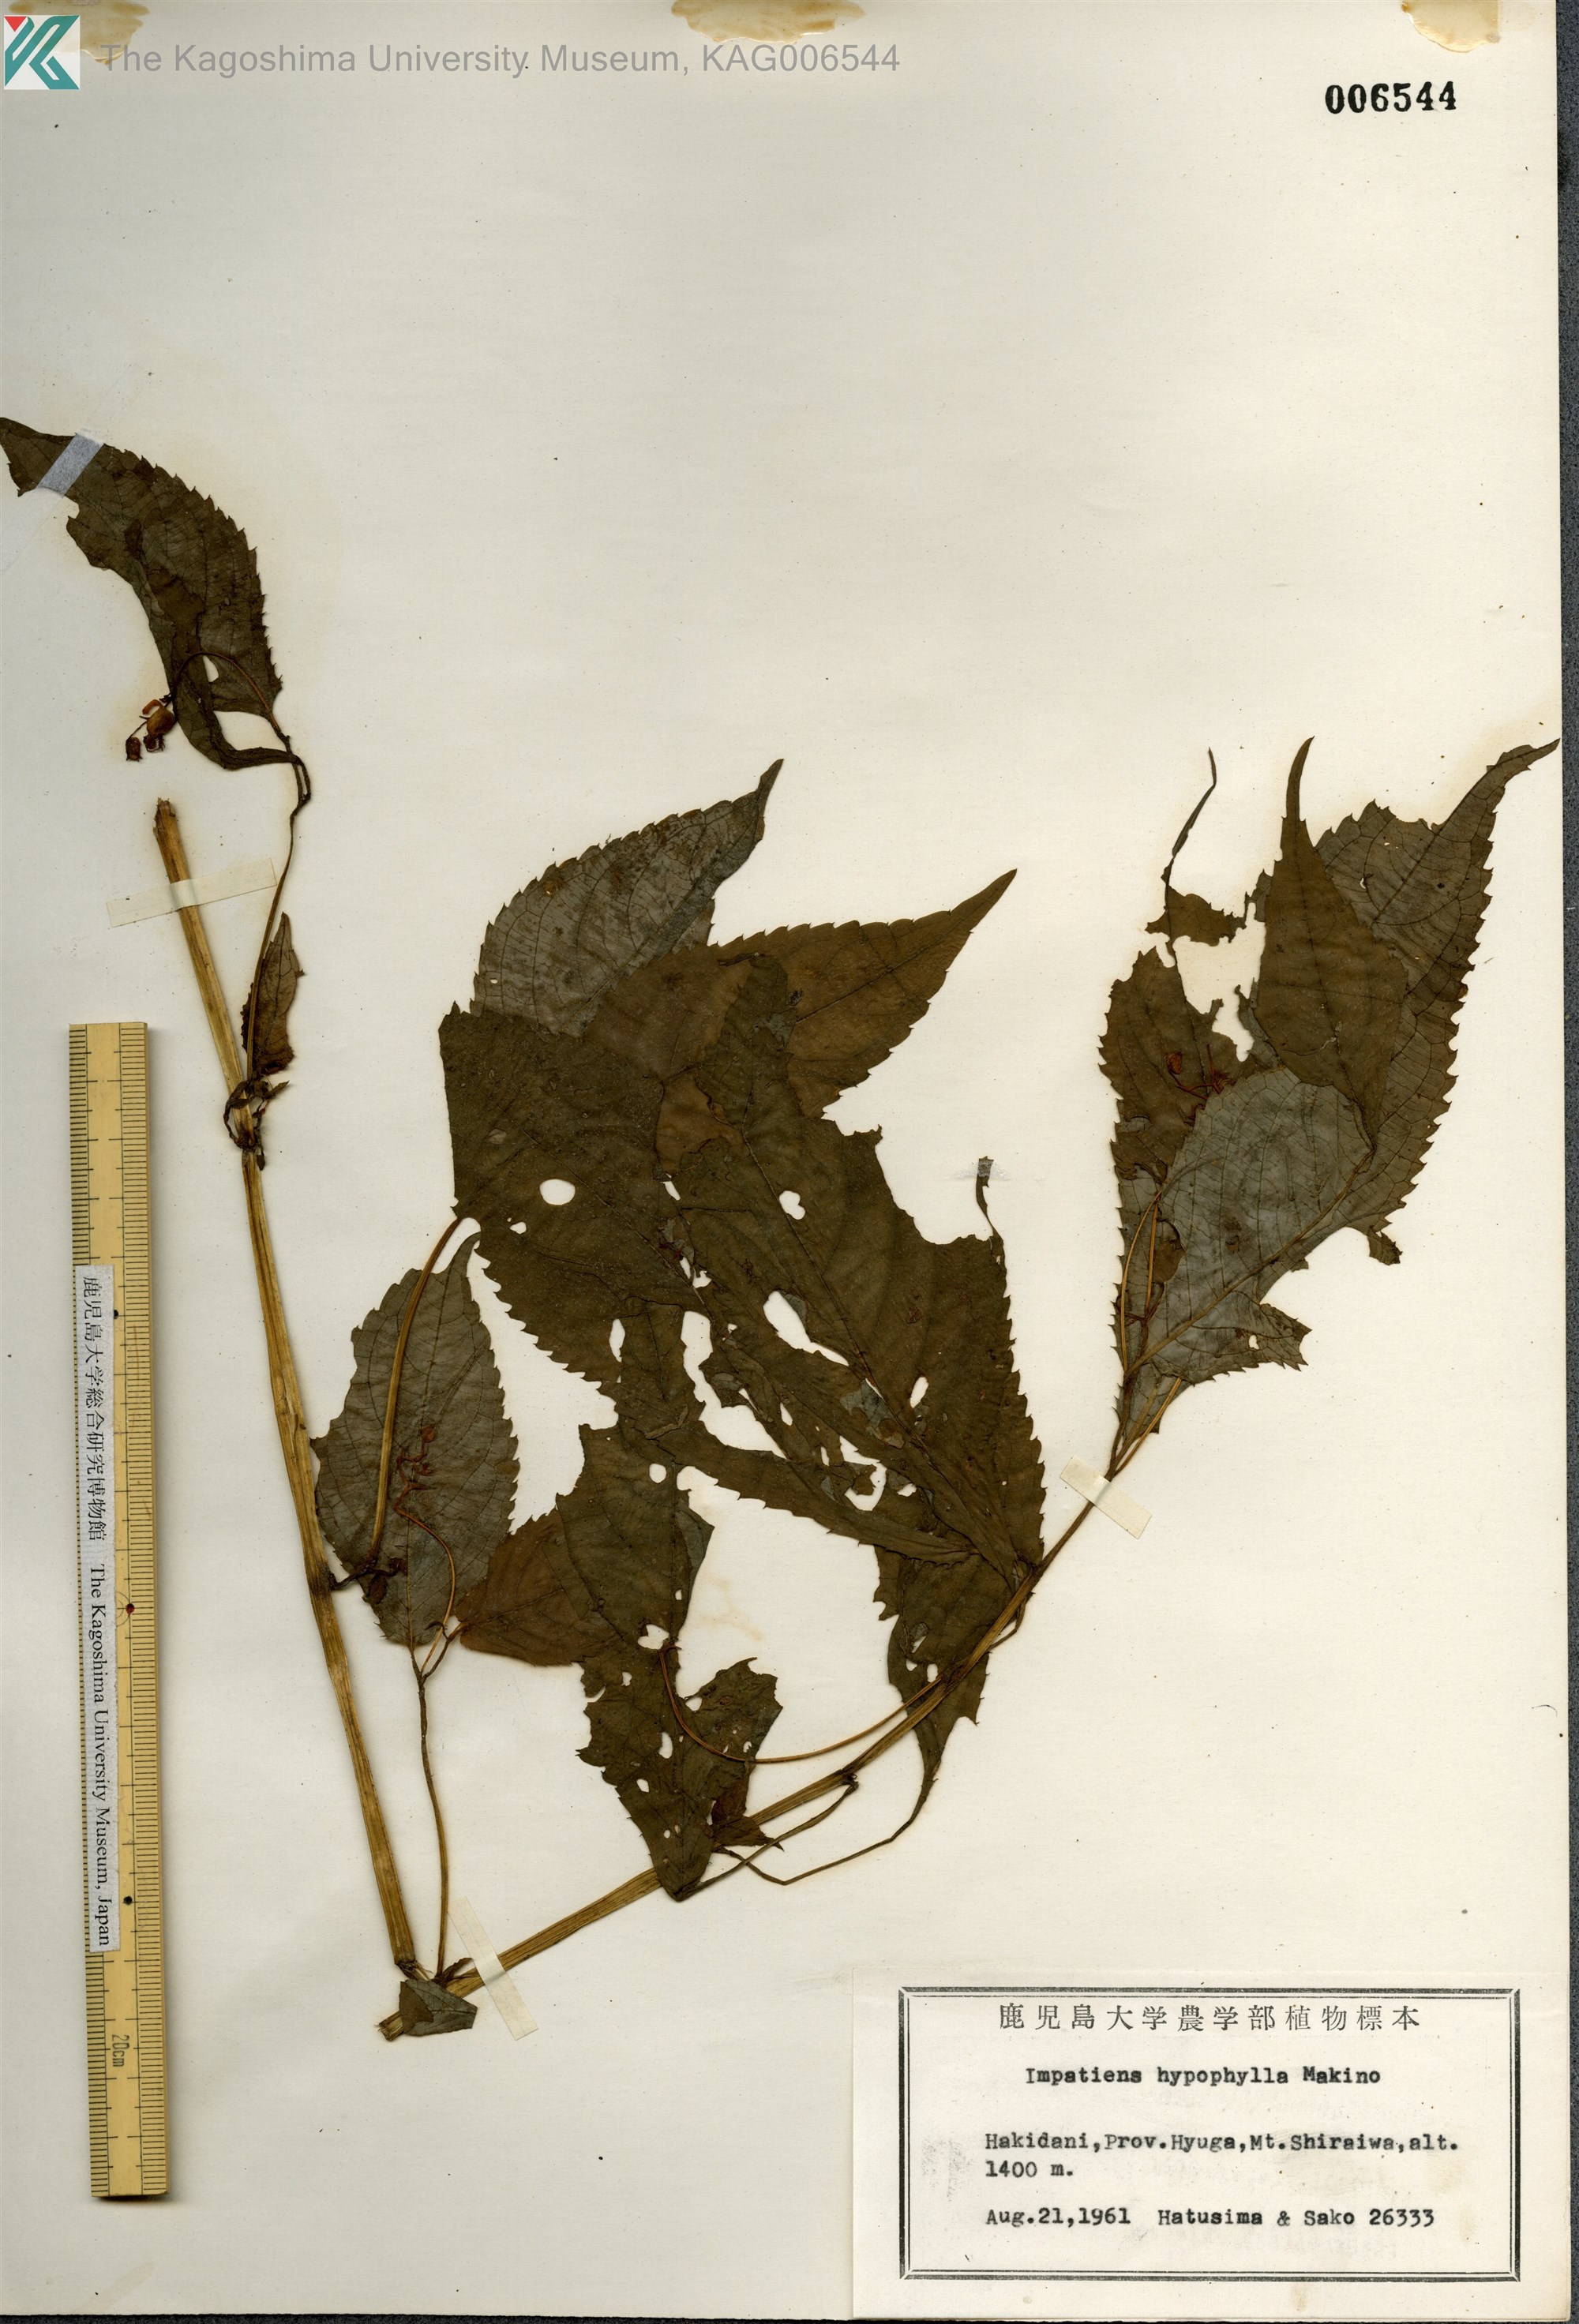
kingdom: Plantae
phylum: Tracheophyta
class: Magnoliopsida
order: Ericales
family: Balsaminaceae
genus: Impatiens
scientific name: Impatiens hypophylla
